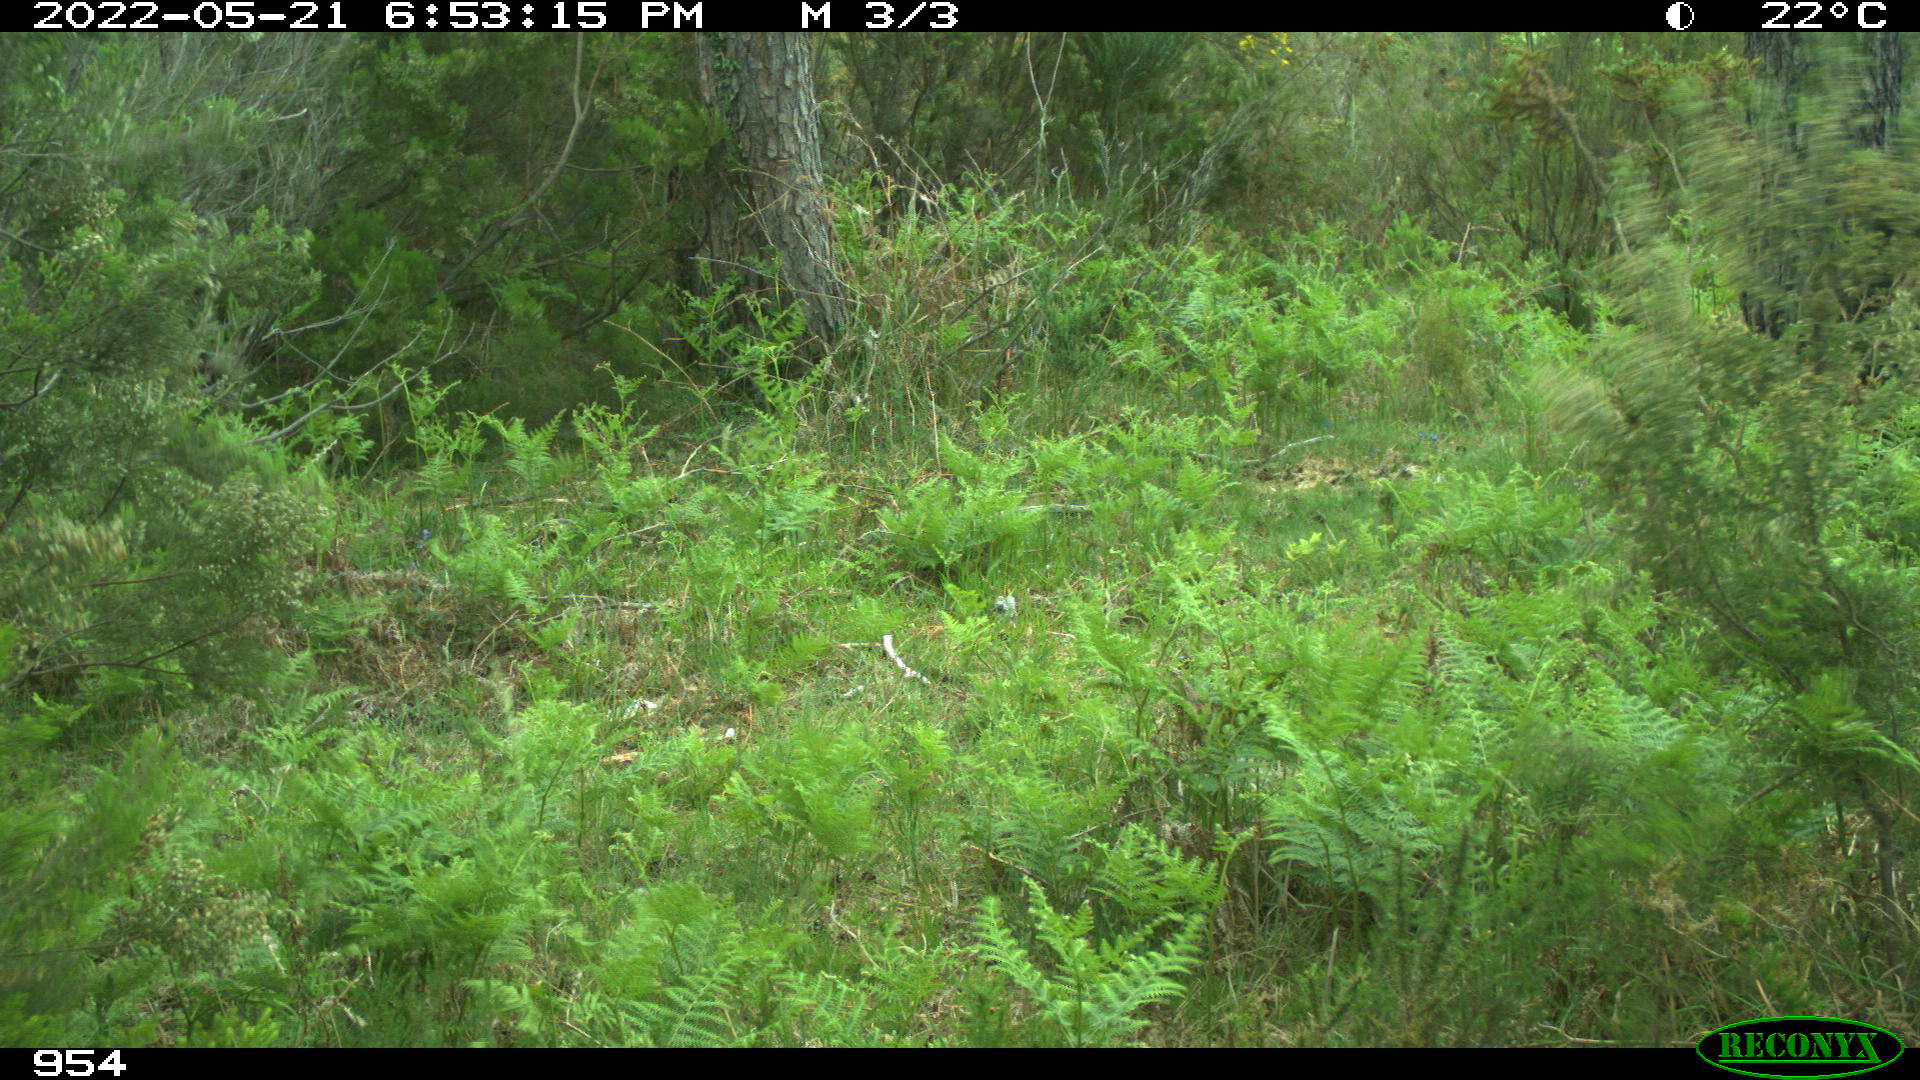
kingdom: Animalia
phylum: Chordata
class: Mammalia
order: Perissodactyla
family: Equidae
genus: Equus
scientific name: Equus caballus
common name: Horse
